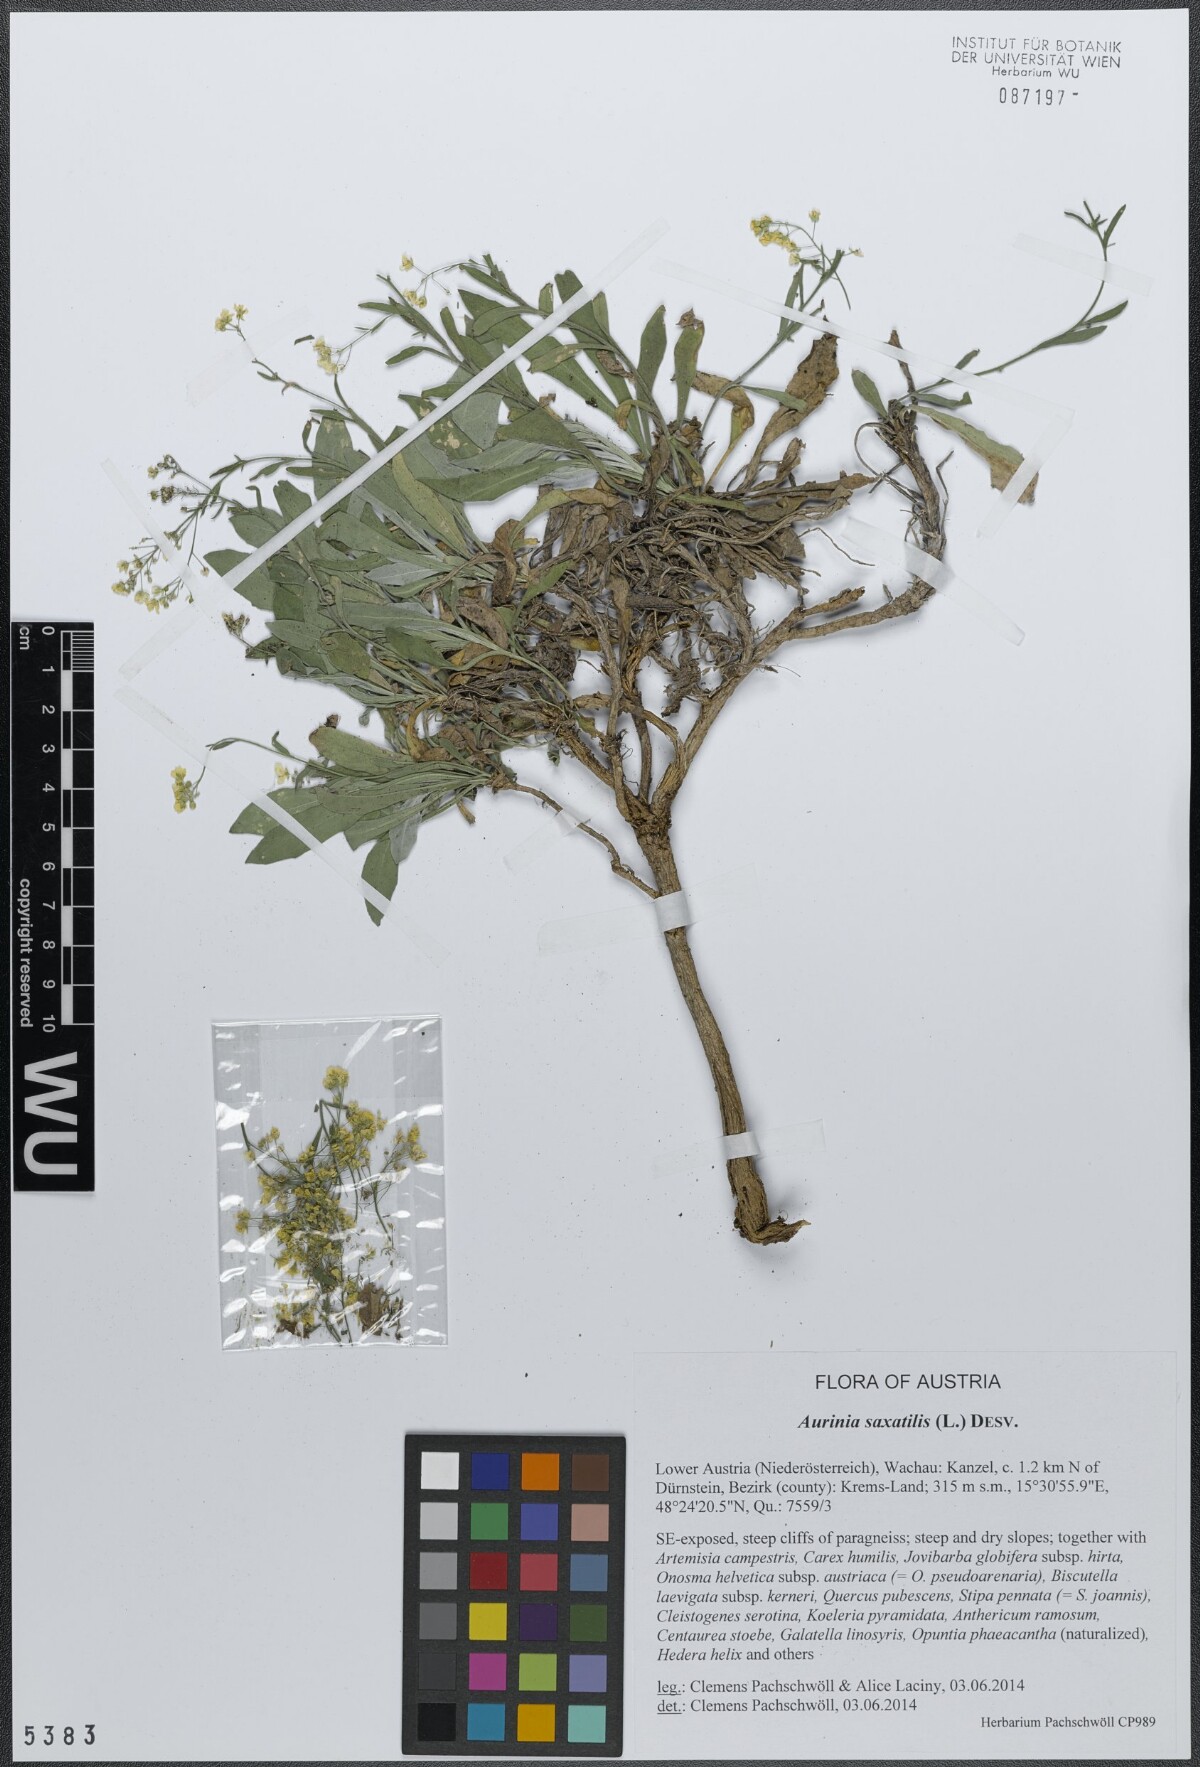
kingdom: Plantae
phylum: Tracheophyta
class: Magnoliopsida
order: Brassicales
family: Brassicaceae
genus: Aurinia
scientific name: Aurinia saxatilis
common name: Golden-tuft alyssum
